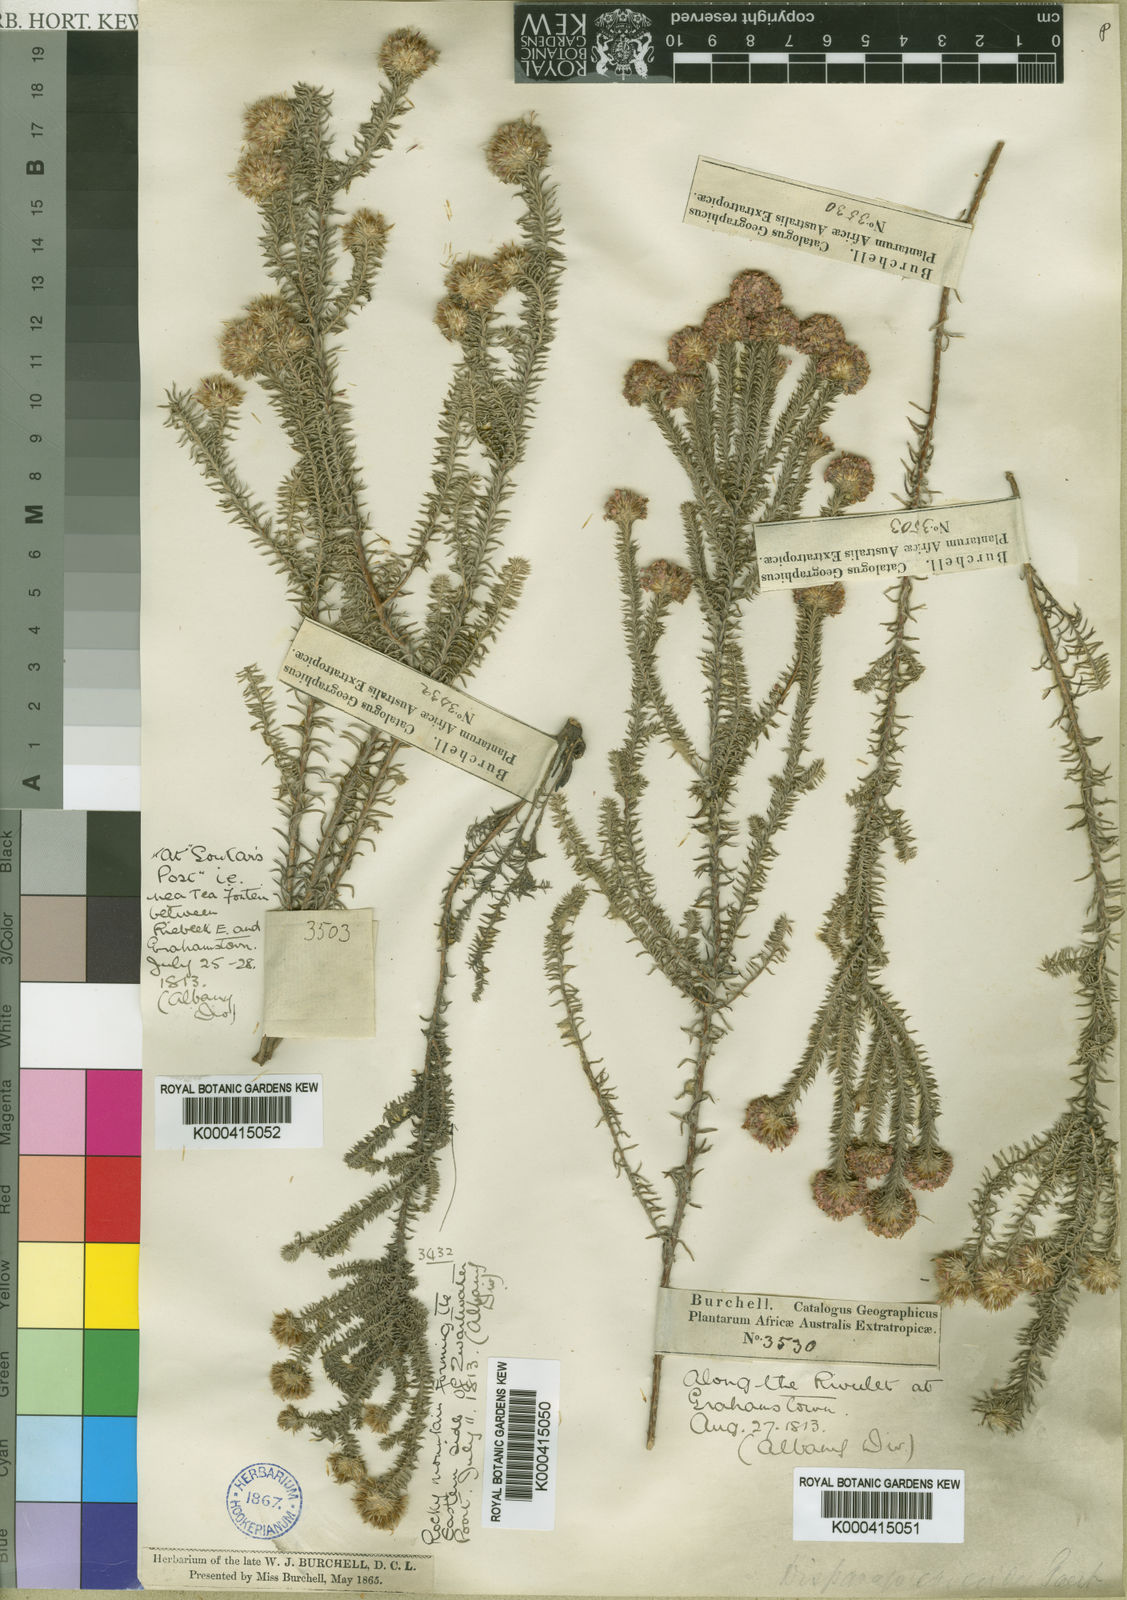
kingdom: Plantae
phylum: Tracheophyta
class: Magnoliopsida
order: Asterales
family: Asteraceae
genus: Disparago
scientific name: Disparago tortilis
